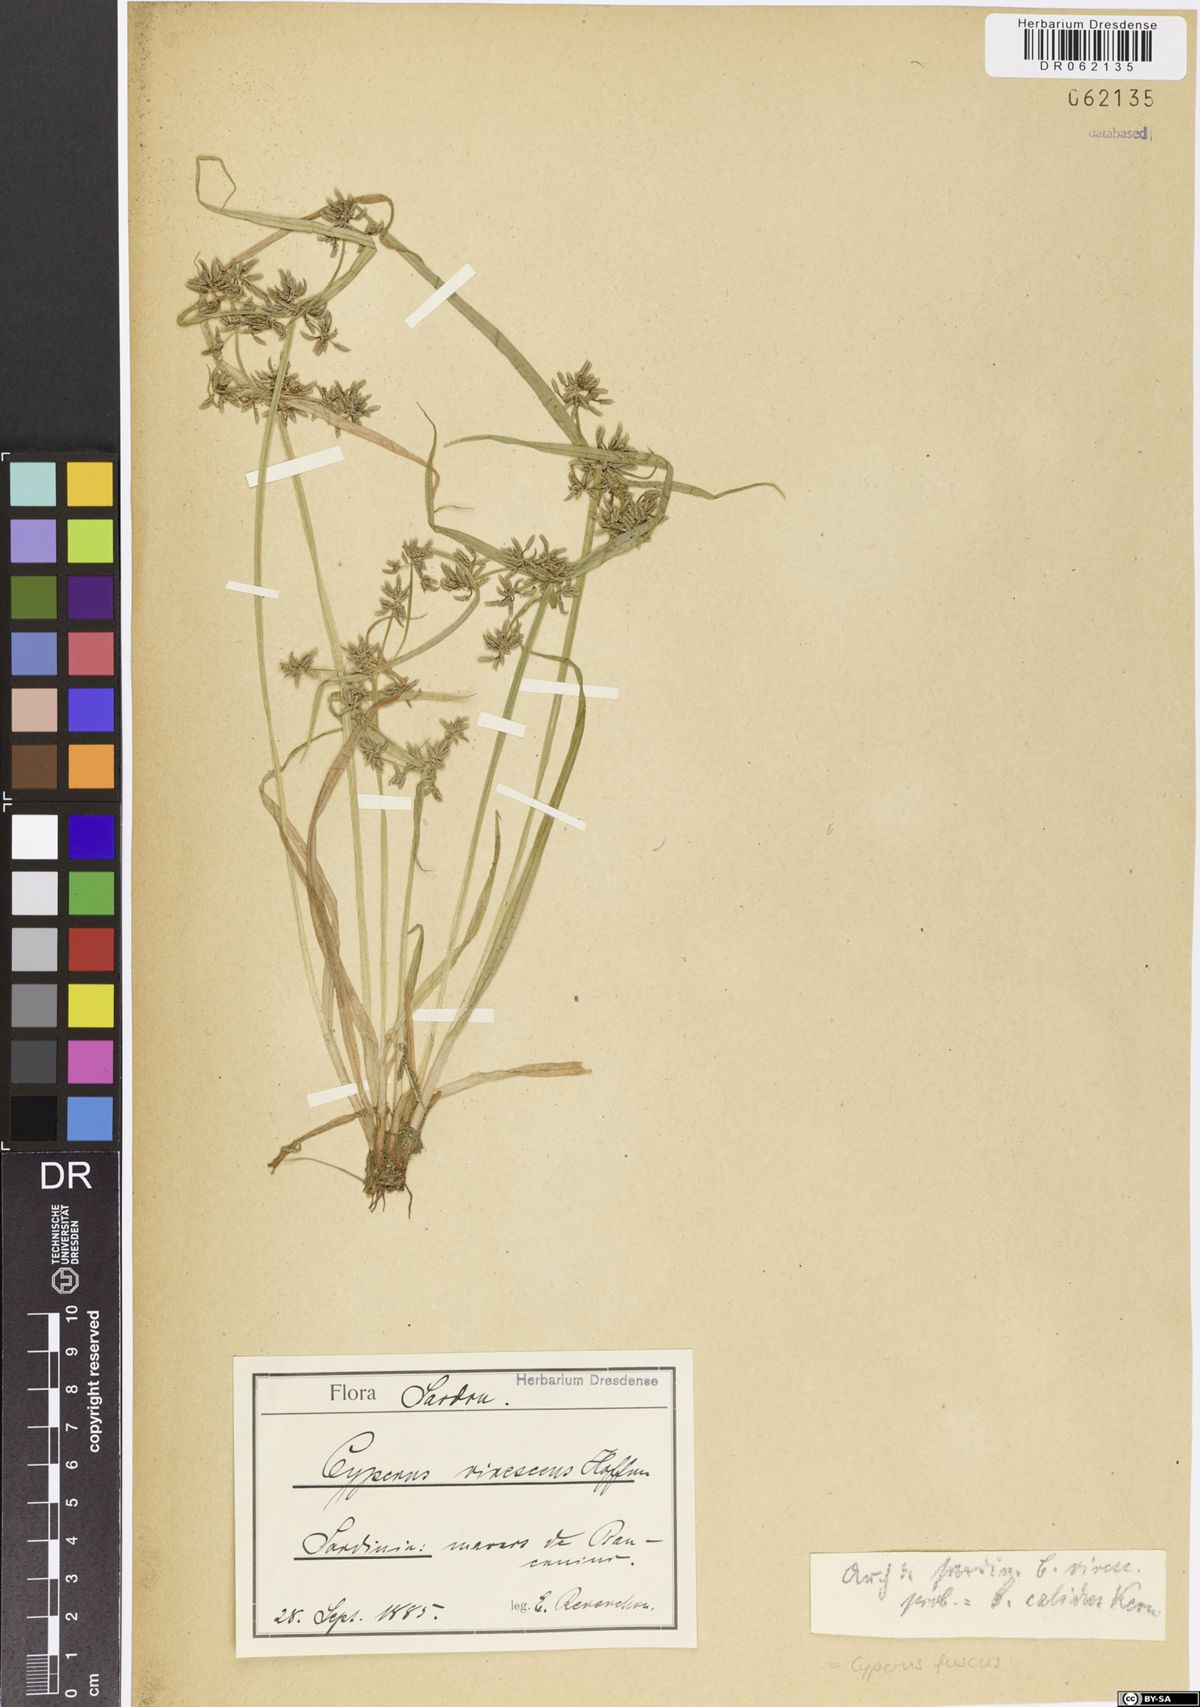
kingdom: Plantae
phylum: Tracheophyta
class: Liliopsida
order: Poales
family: Cyperaceae
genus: Cyperus
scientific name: Cyperus fuscus
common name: Brown galingale
